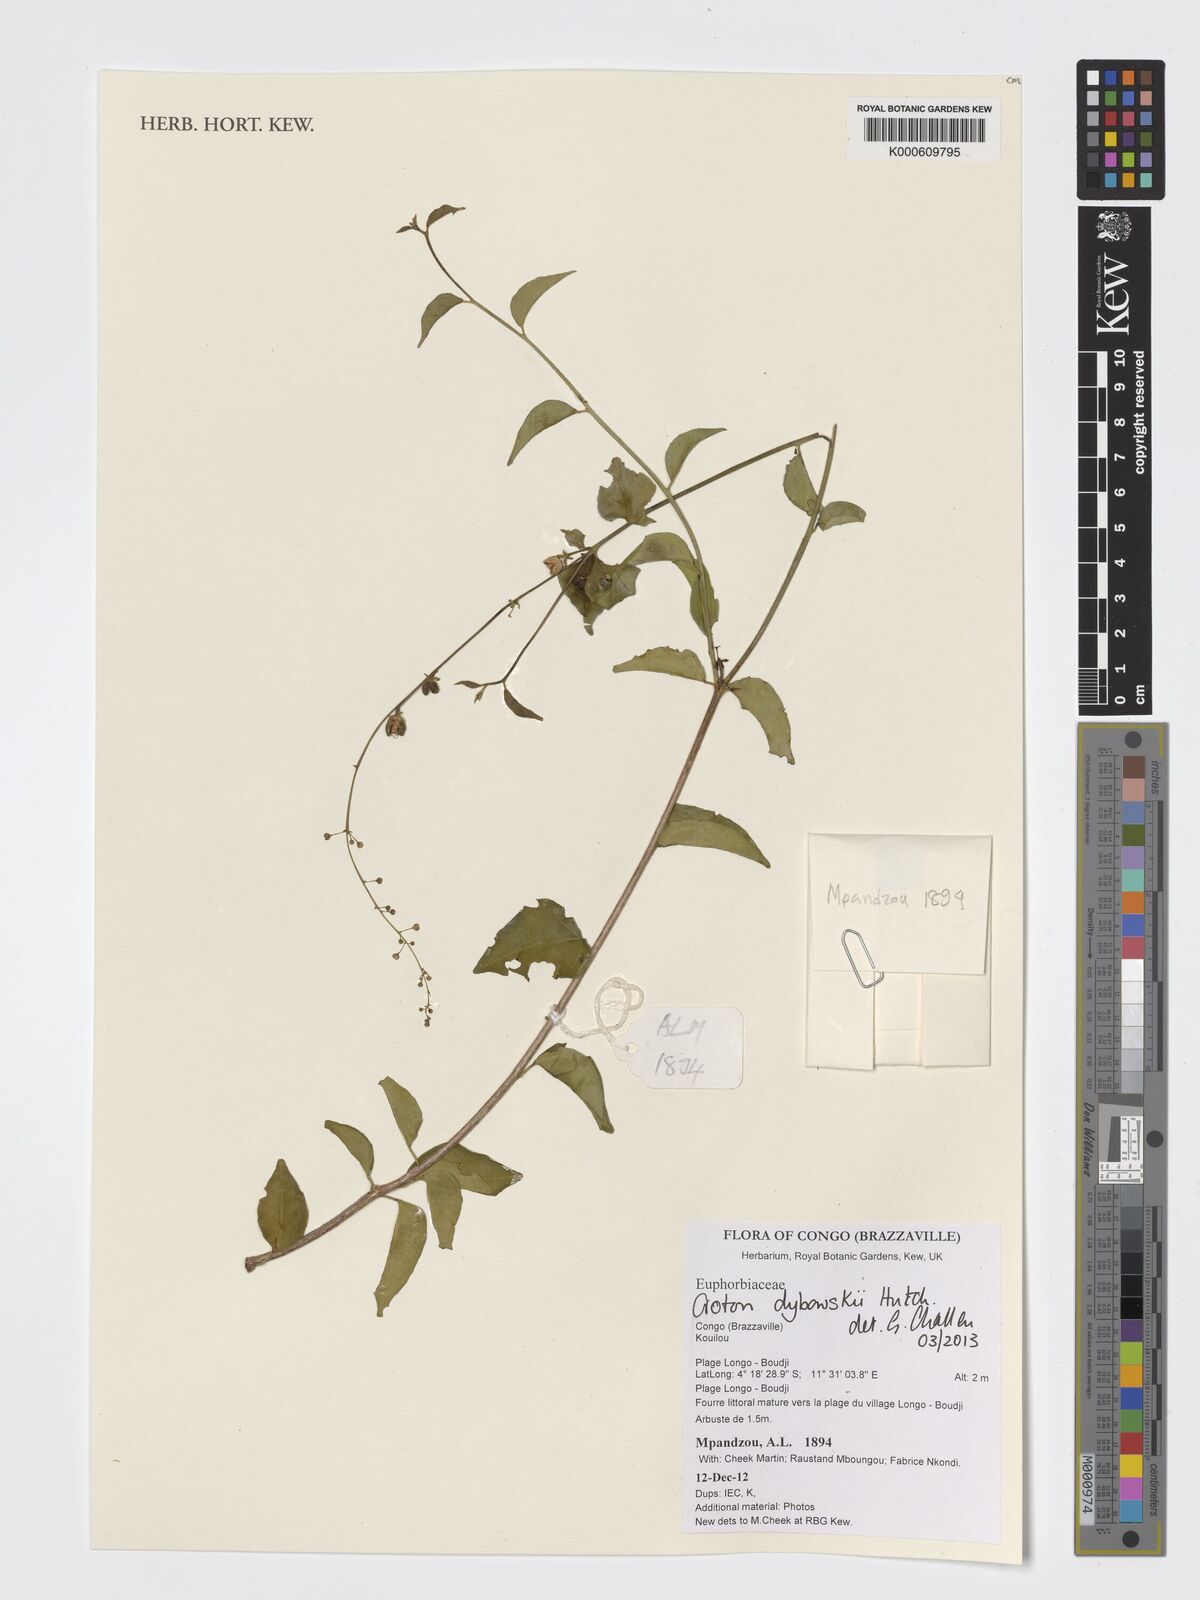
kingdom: Plantae
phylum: Tracheophyta
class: Magnoliopsida
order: Malpighiales
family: Euphorbiaceae
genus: Croton
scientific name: Croton dybowskii
